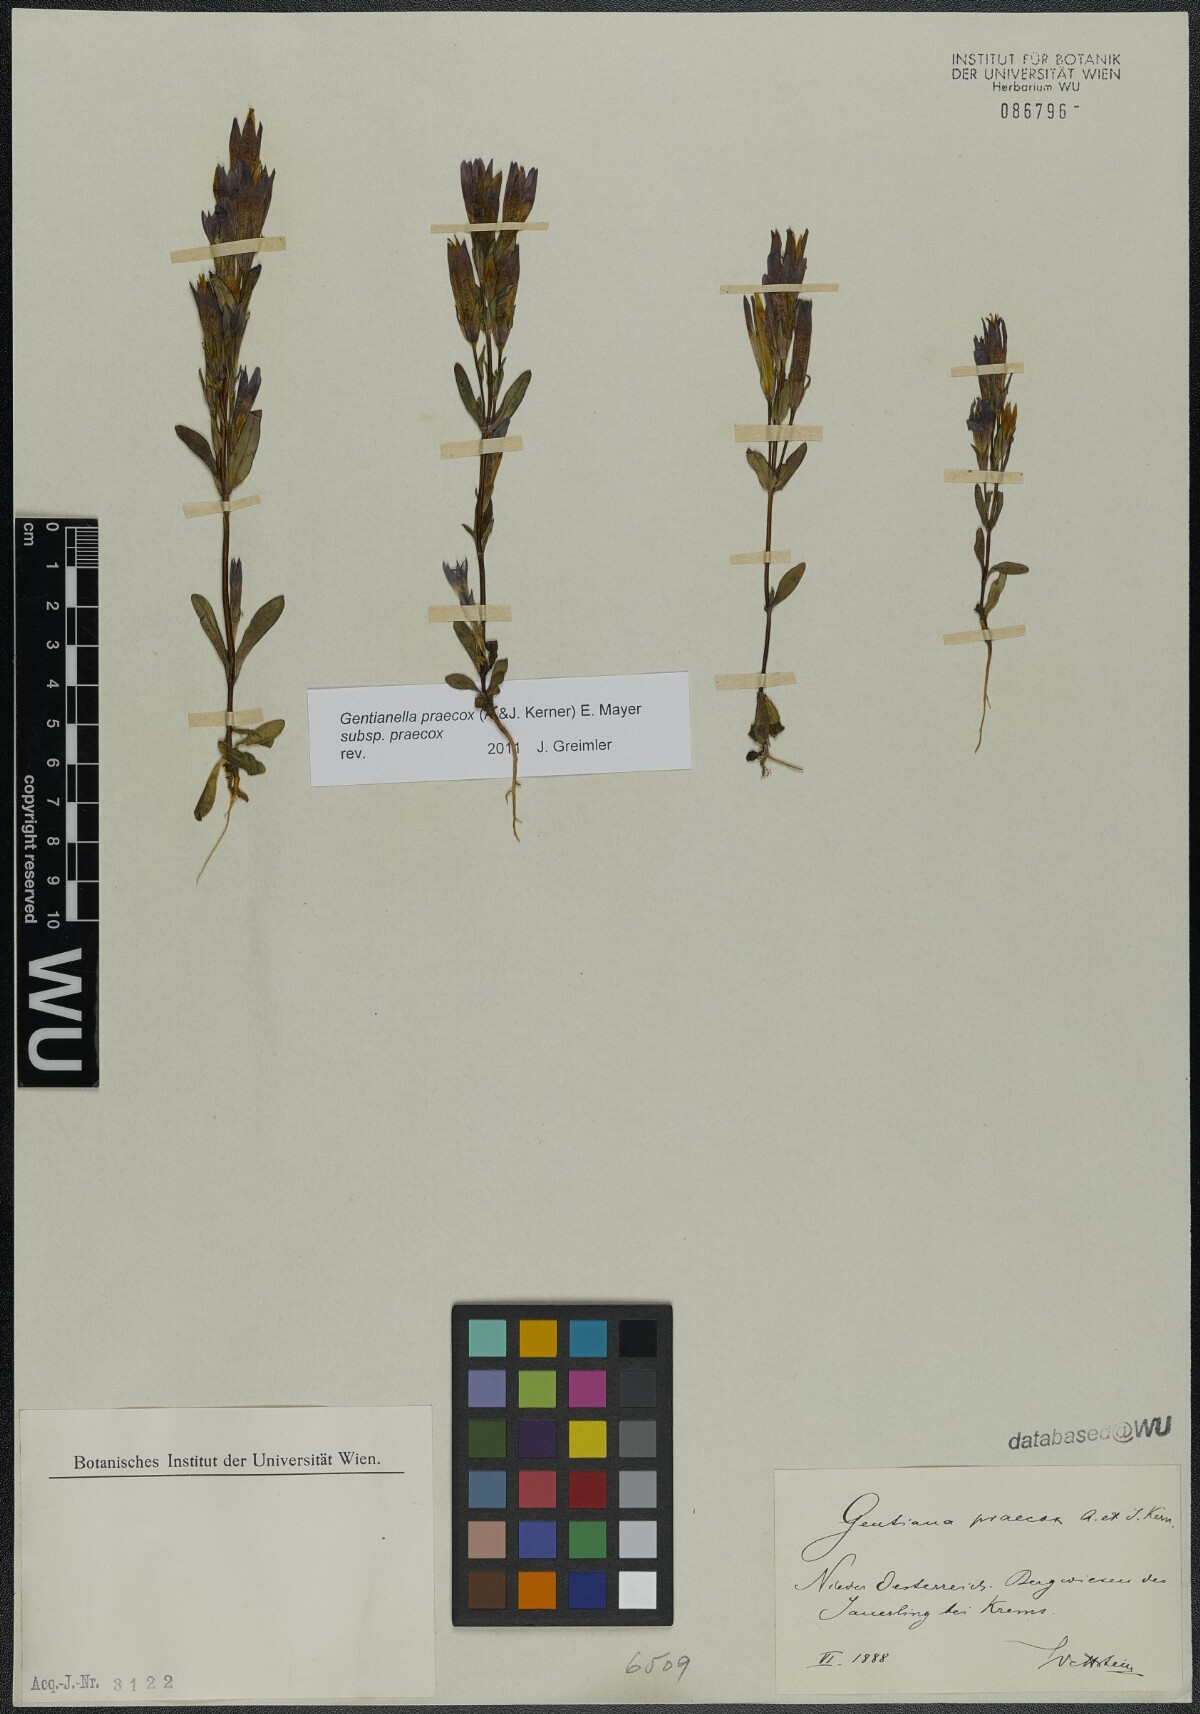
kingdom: Plantae
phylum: Tracheophyta
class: Magnoliopsida
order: Gentianales
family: Gentianaceae
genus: Gentianella
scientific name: Gentianella praecox
